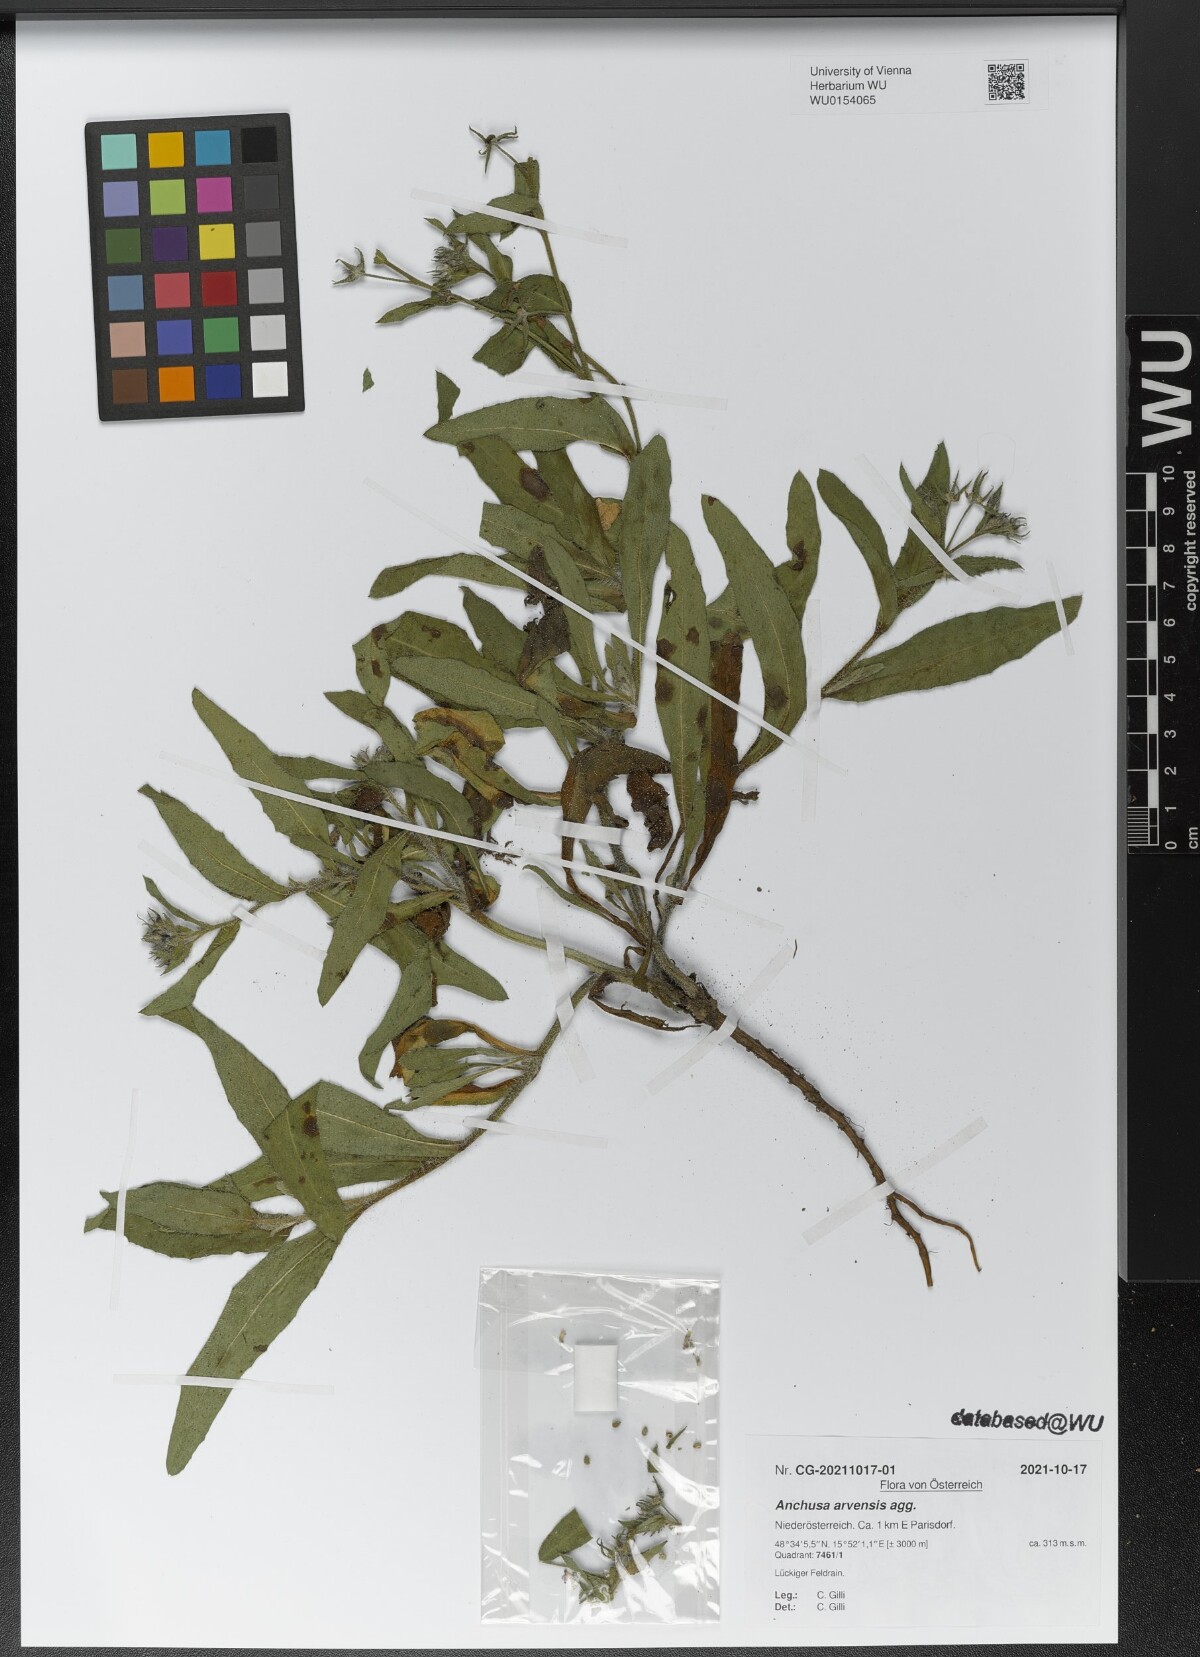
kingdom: Plantae
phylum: Tracheophyta
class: Magnoliopsida
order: Boraginales
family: Boraginaceae
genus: Lycopsis
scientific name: Lycopsis arvensis
